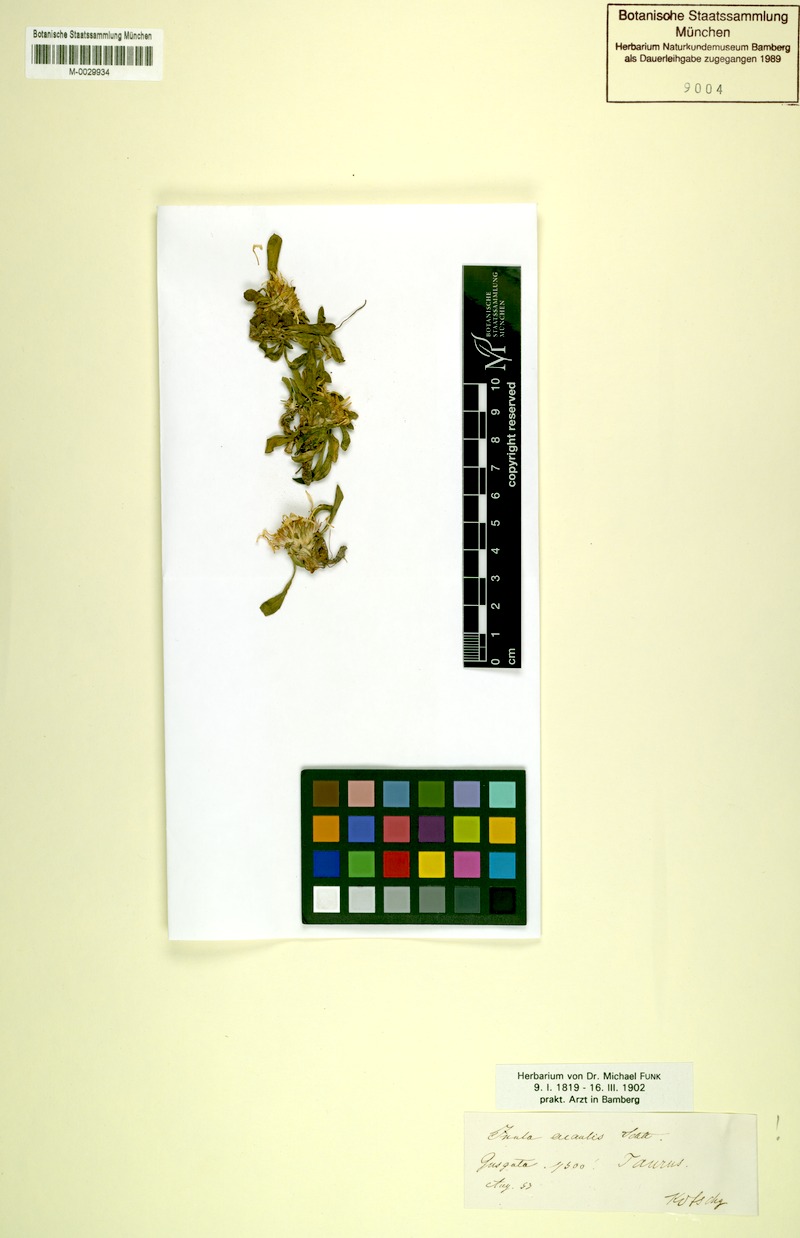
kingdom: Plantae
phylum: Tracheophyta
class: Magnoliopsida
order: Asterales
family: Asteraceae
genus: Inula
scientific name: Inula acaulis
